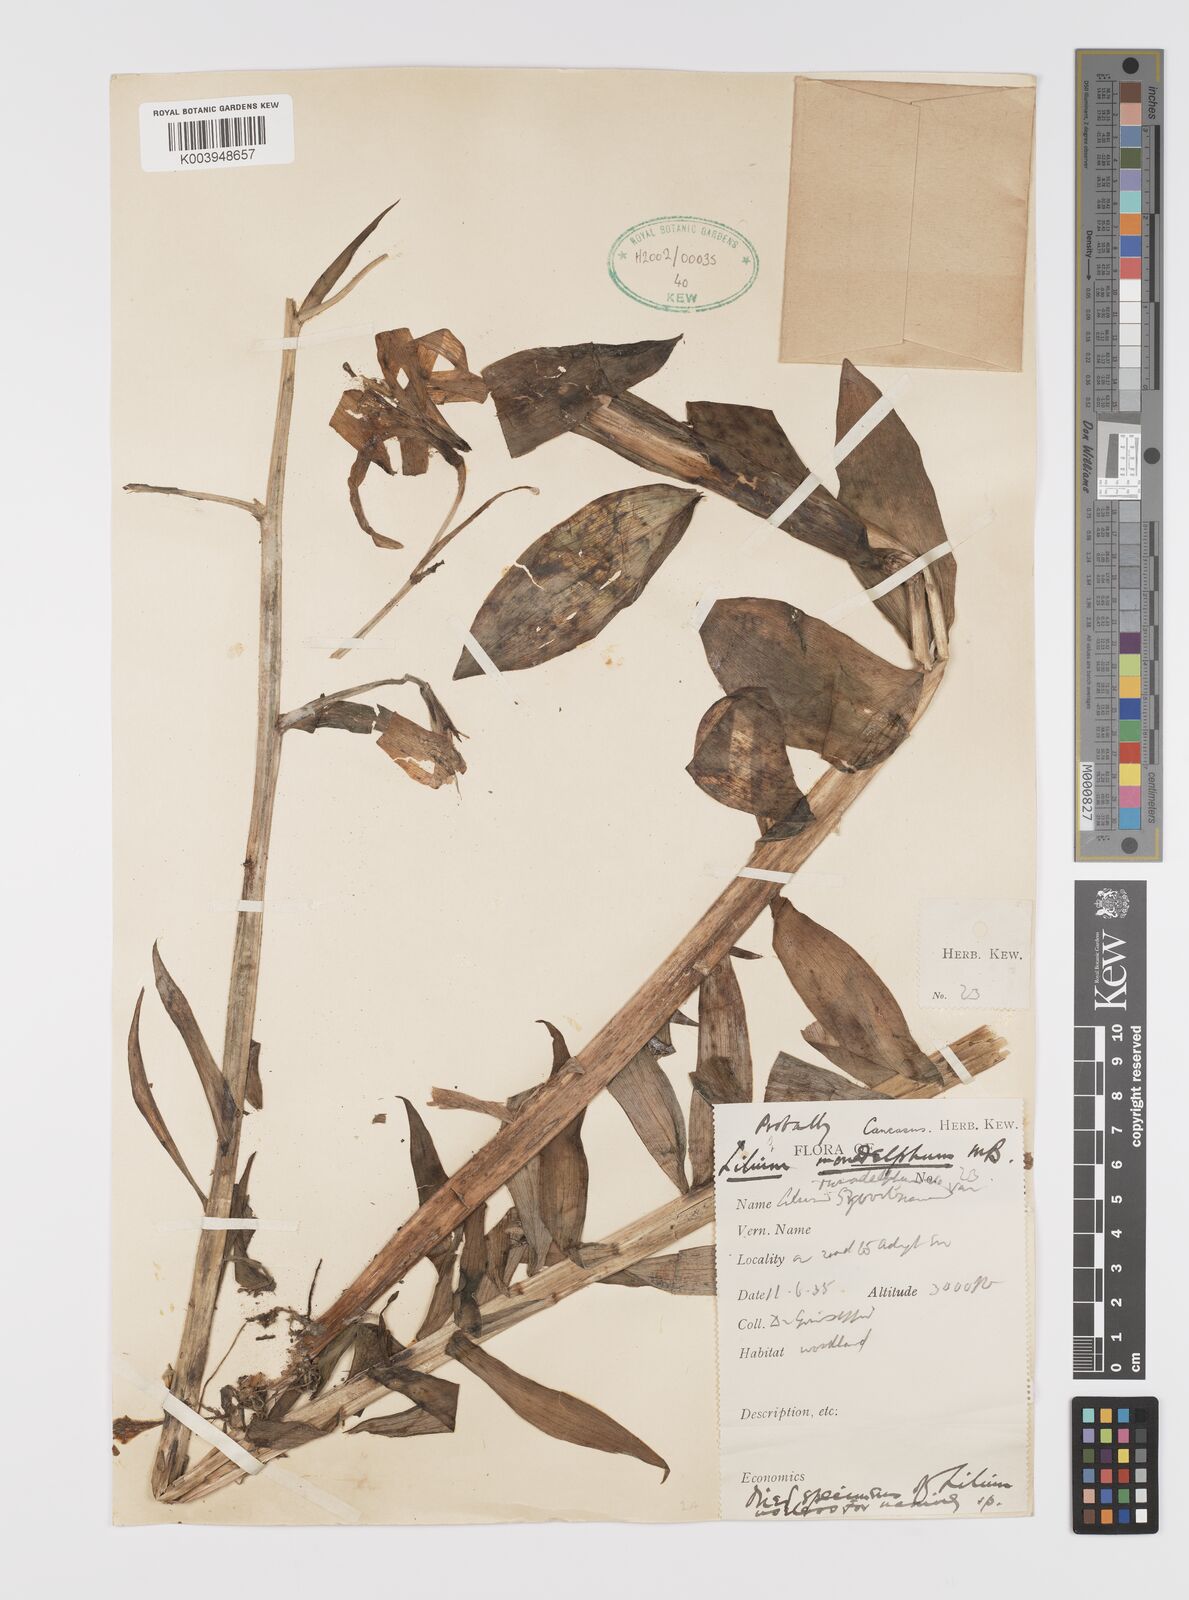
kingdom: Plantae
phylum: Tracheophyta
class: Liliopsida
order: Liliales
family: Liliaceae
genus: Lilium
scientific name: Lilium monadelphum
